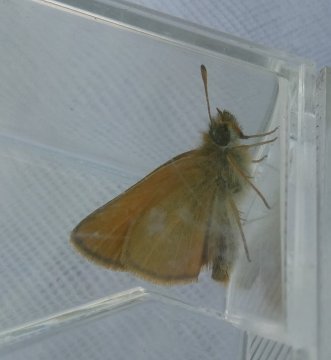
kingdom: Animalia
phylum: Arthropoda
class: Insecta
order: Lepidoptera
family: Hesperiidae
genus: Thymelicus
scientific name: Thymelicus lineola
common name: European Skipper
